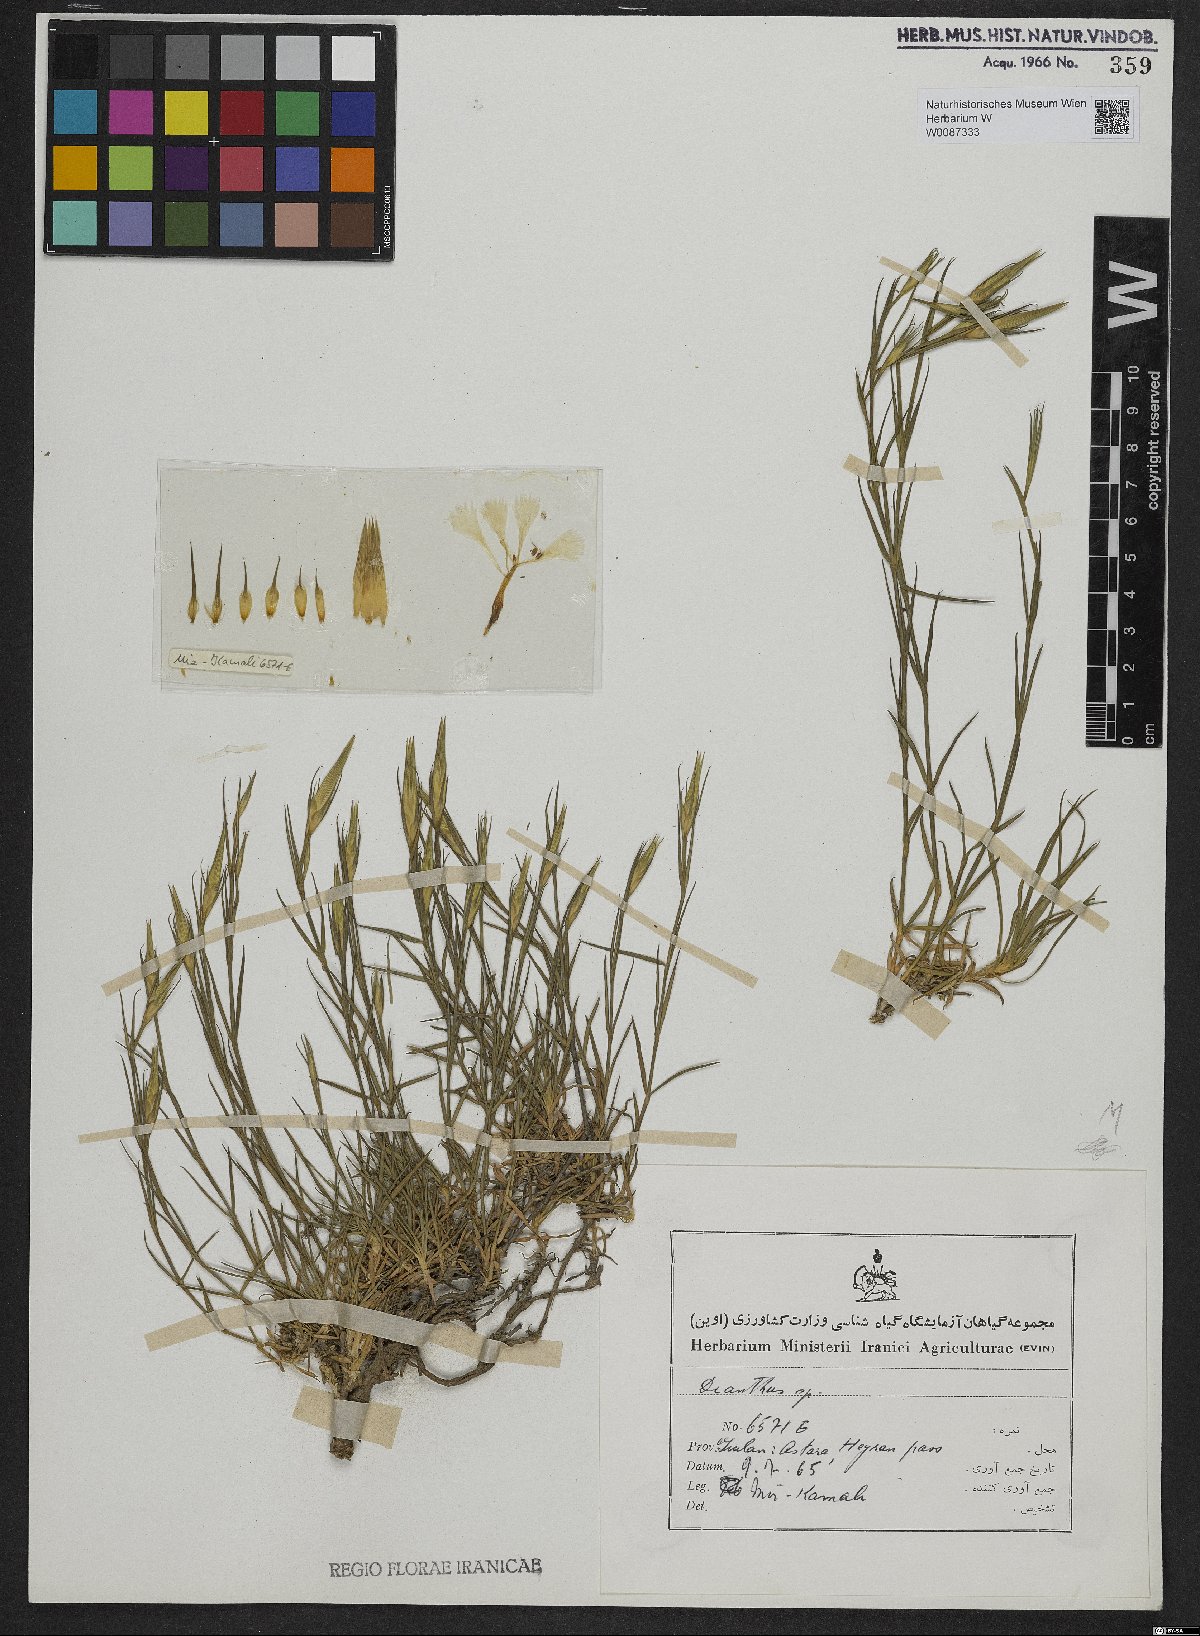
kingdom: Plantae
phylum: Tracheophyta
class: Magnoliopsida
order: Caryophyllales
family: Caryophyllaceae
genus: Dianthus
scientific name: Dianthus
